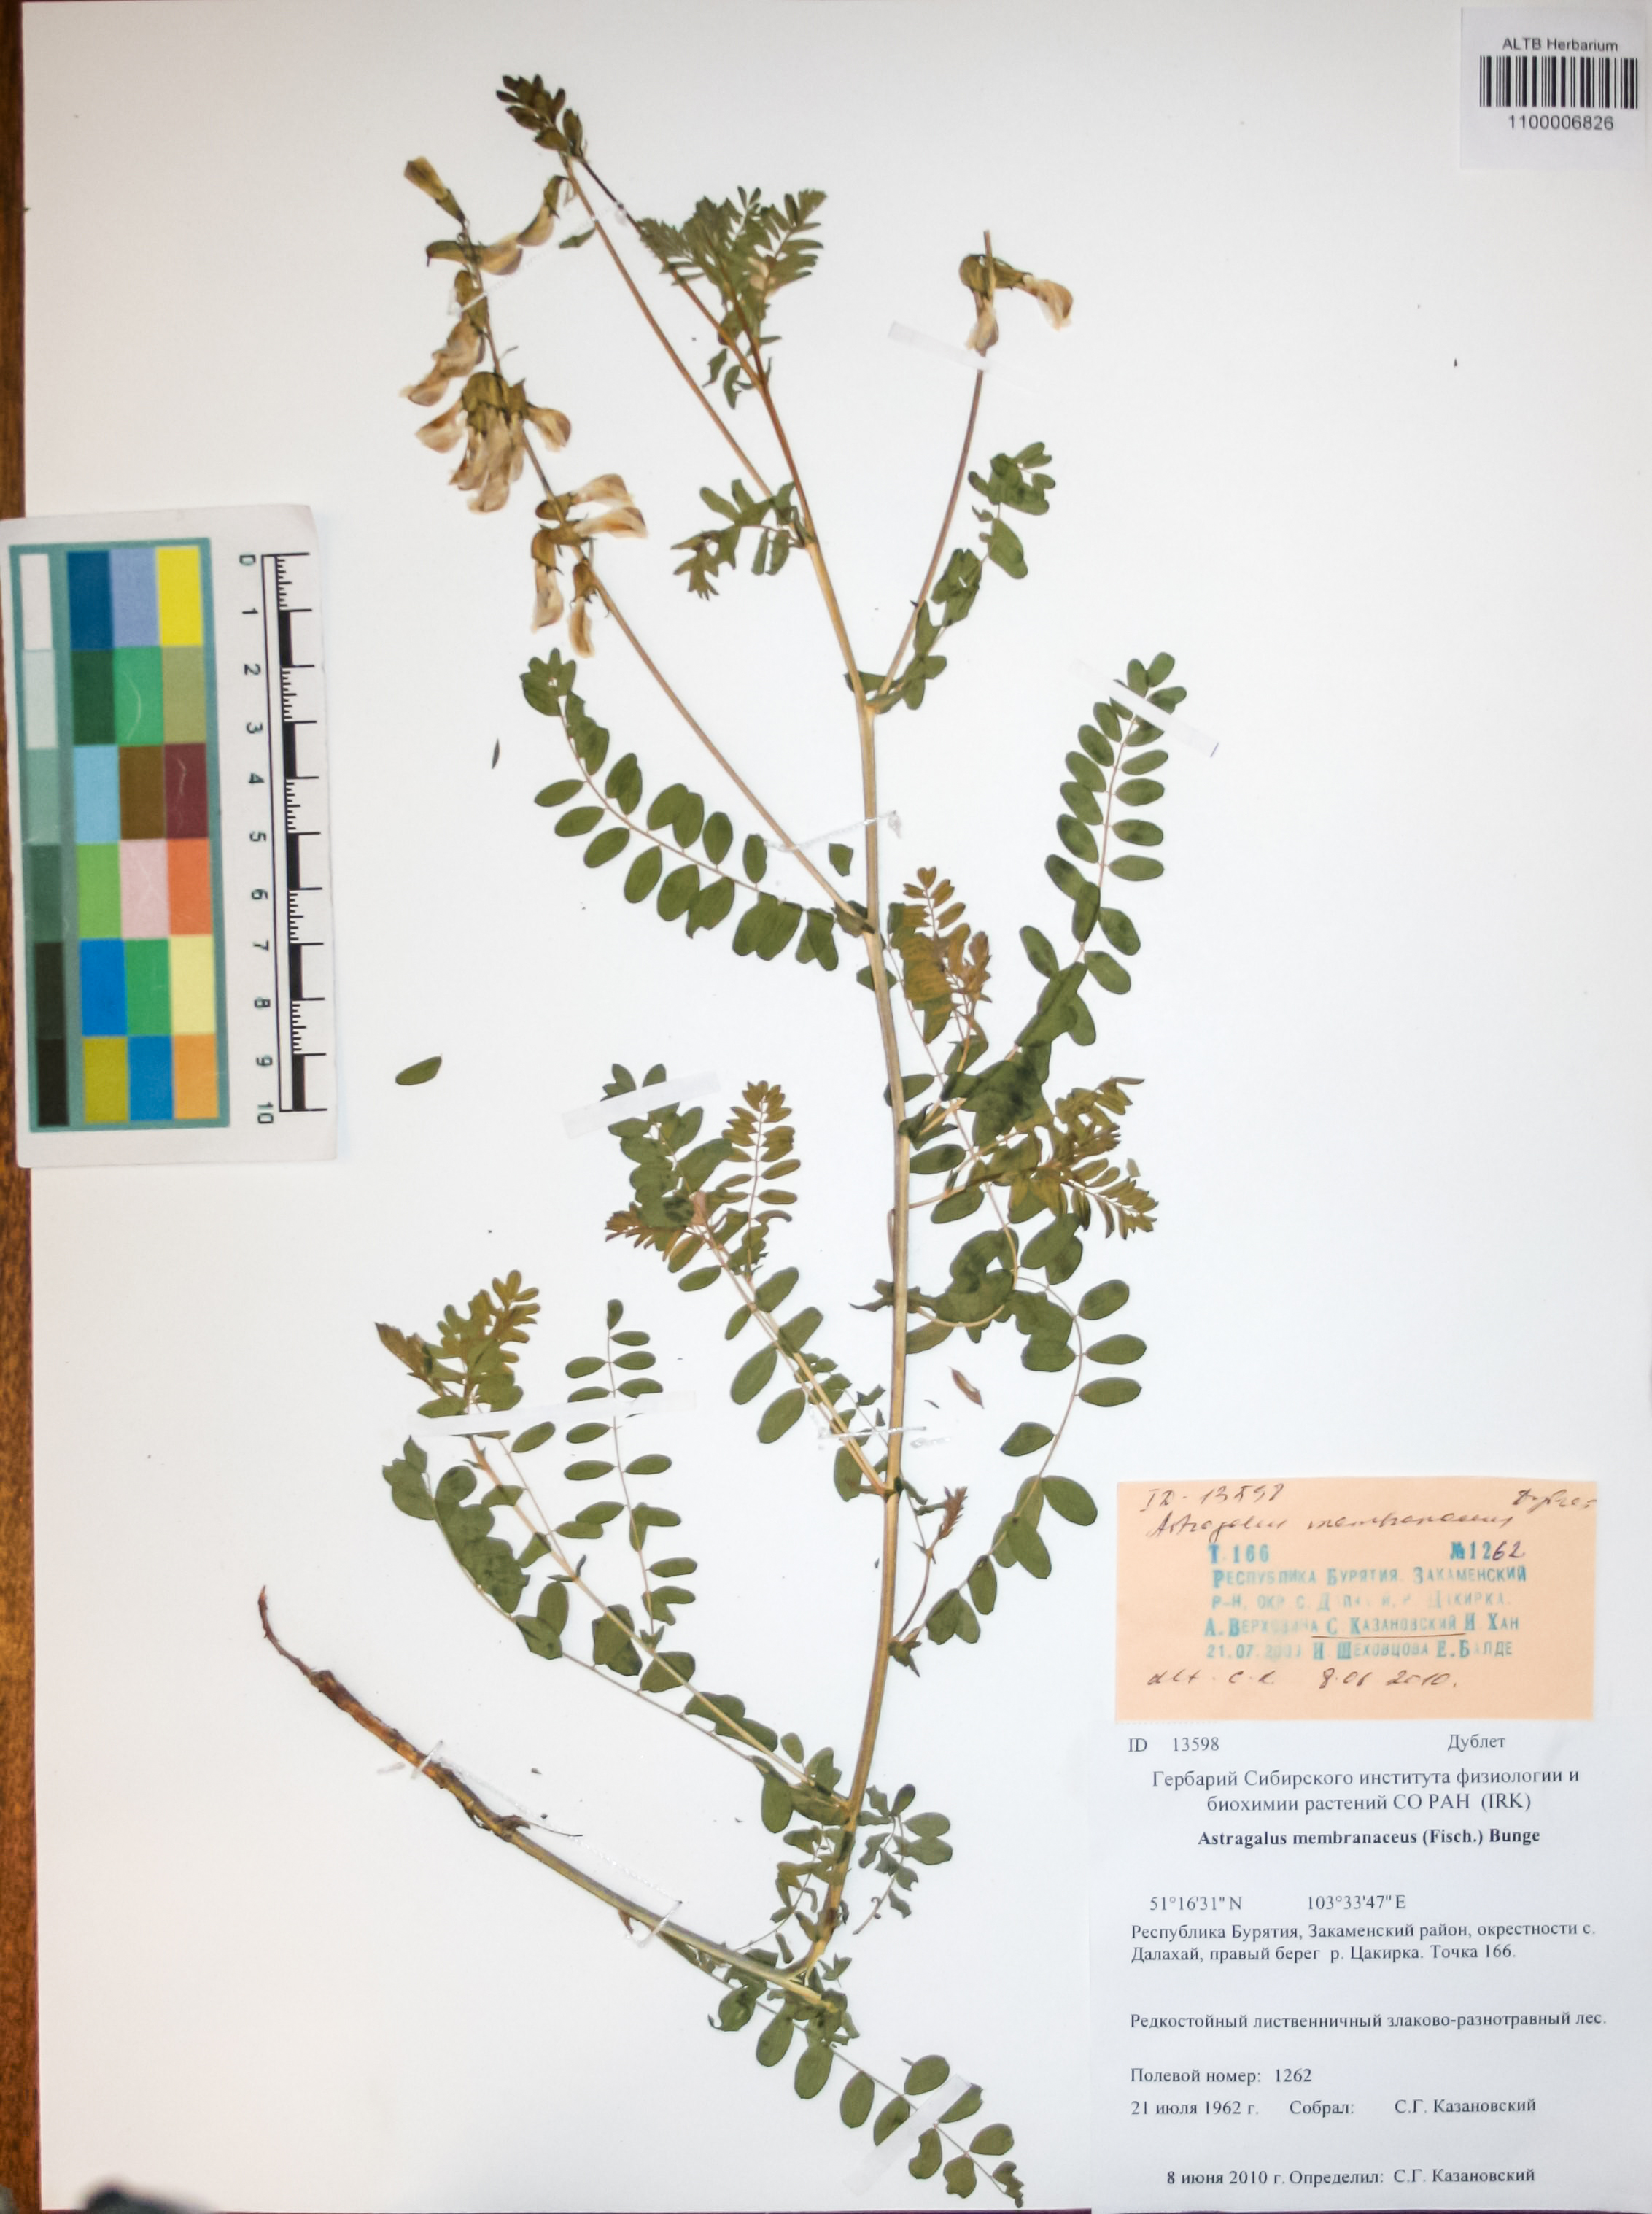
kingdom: Plantae
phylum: Tracheophyta
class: Magnoliopsida
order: Fabales
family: Fabaceae
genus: Astragalus
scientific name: Astragalus mongholicus
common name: Membranous milk-vetch
